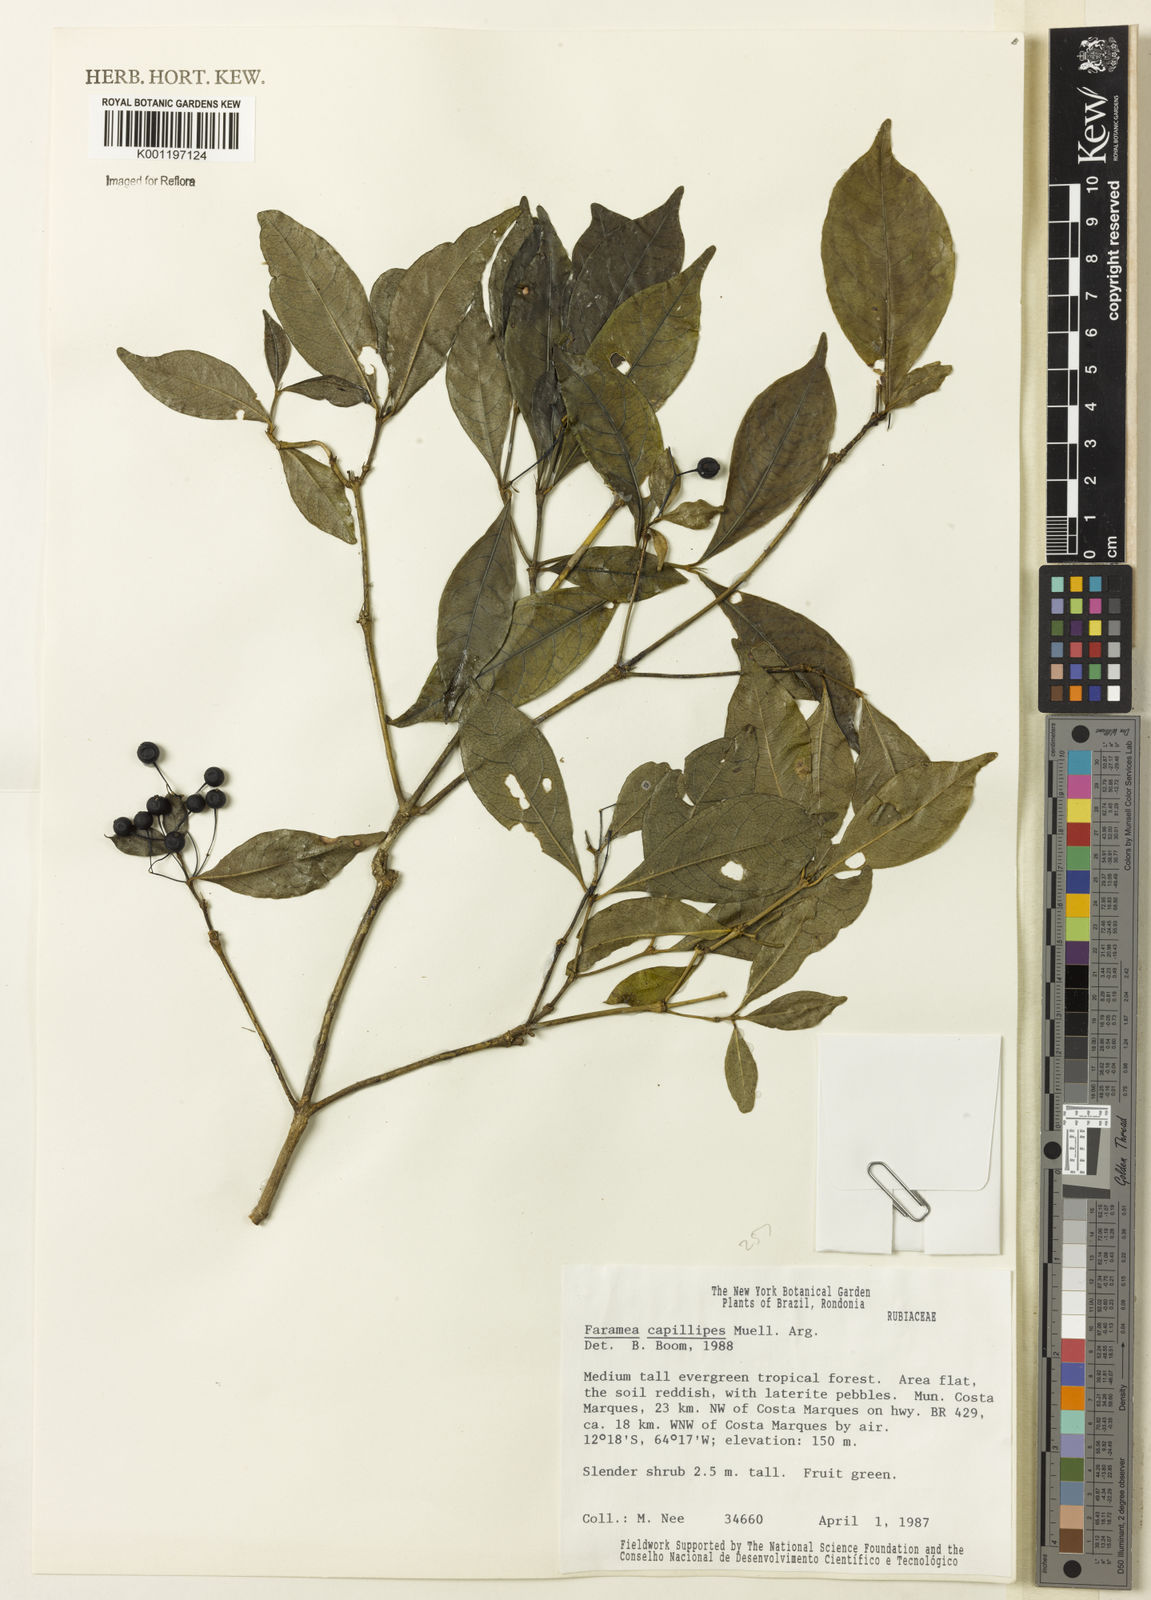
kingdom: Plantae
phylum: Tracheophyta
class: Magnoliopsida
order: Gentianales
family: Rubiaceae
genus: Faramea
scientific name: Faramea
